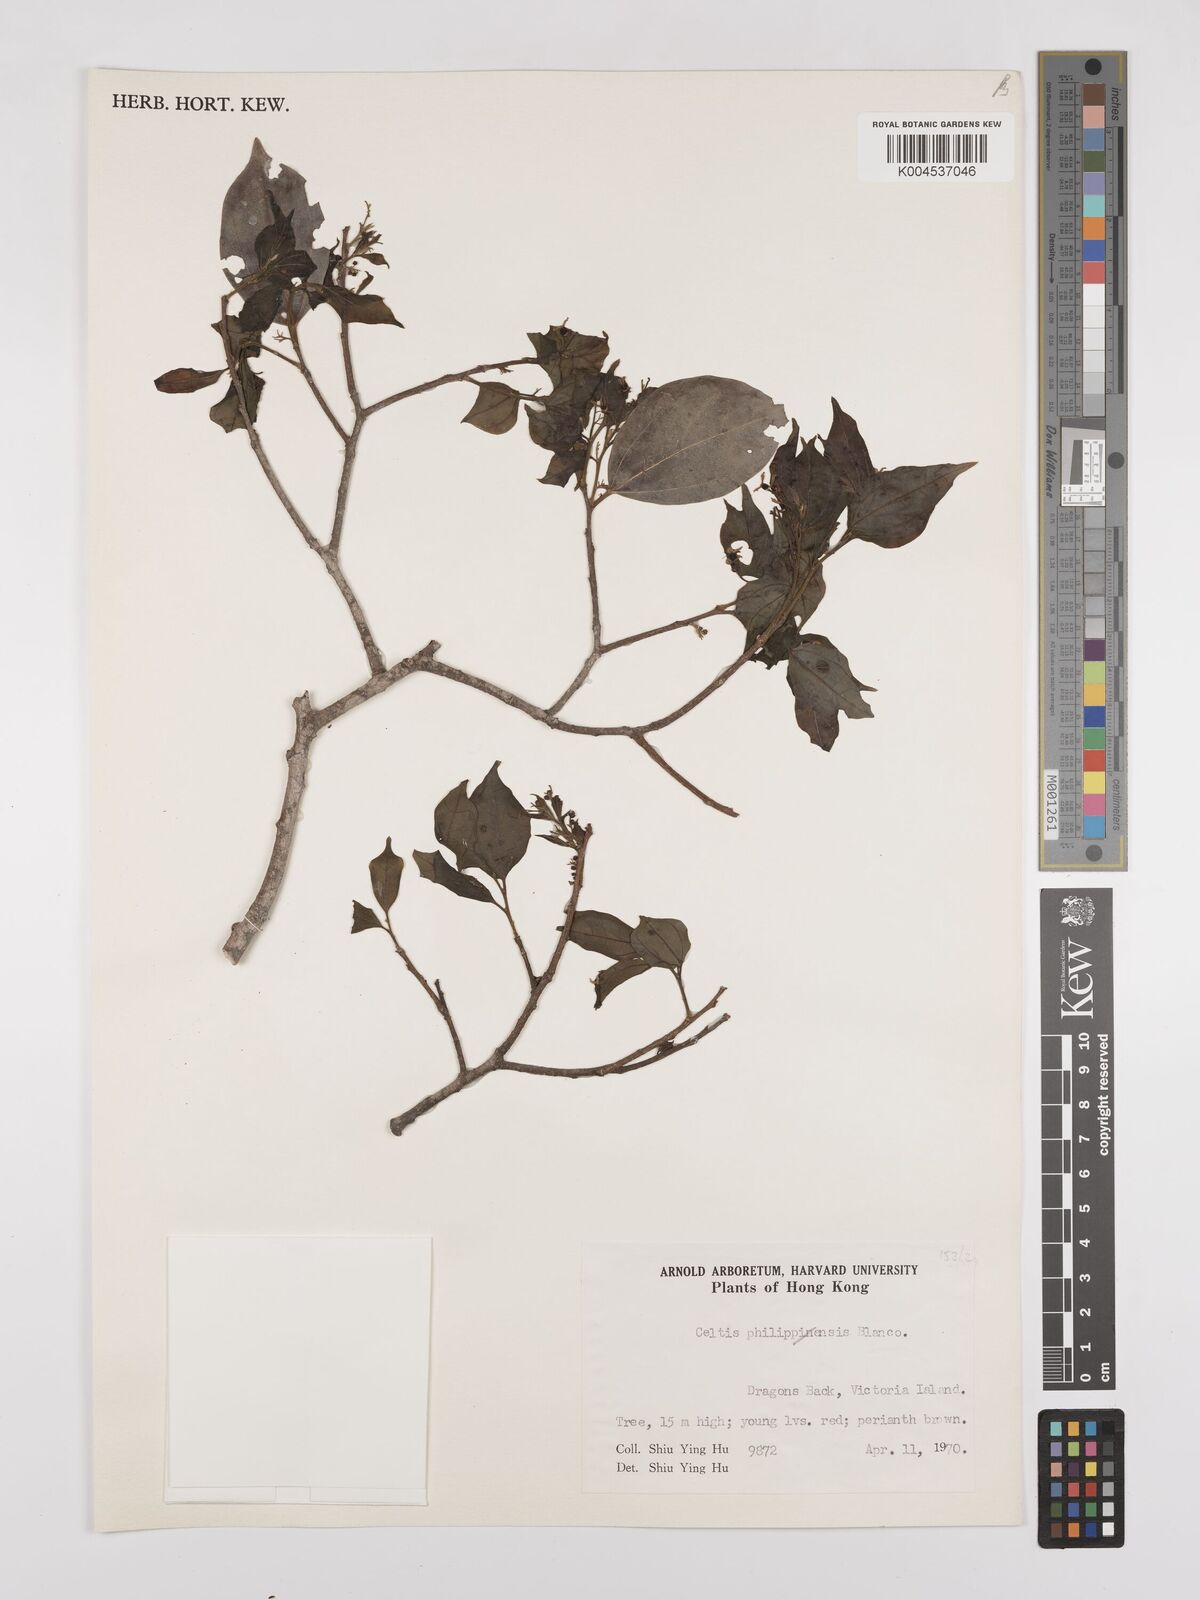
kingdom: Plantae
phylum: Tracheophyta
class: Magnoliopsida
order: Rosales
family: Cannabaceae
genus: Celtis
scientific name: Celtis timorensis
